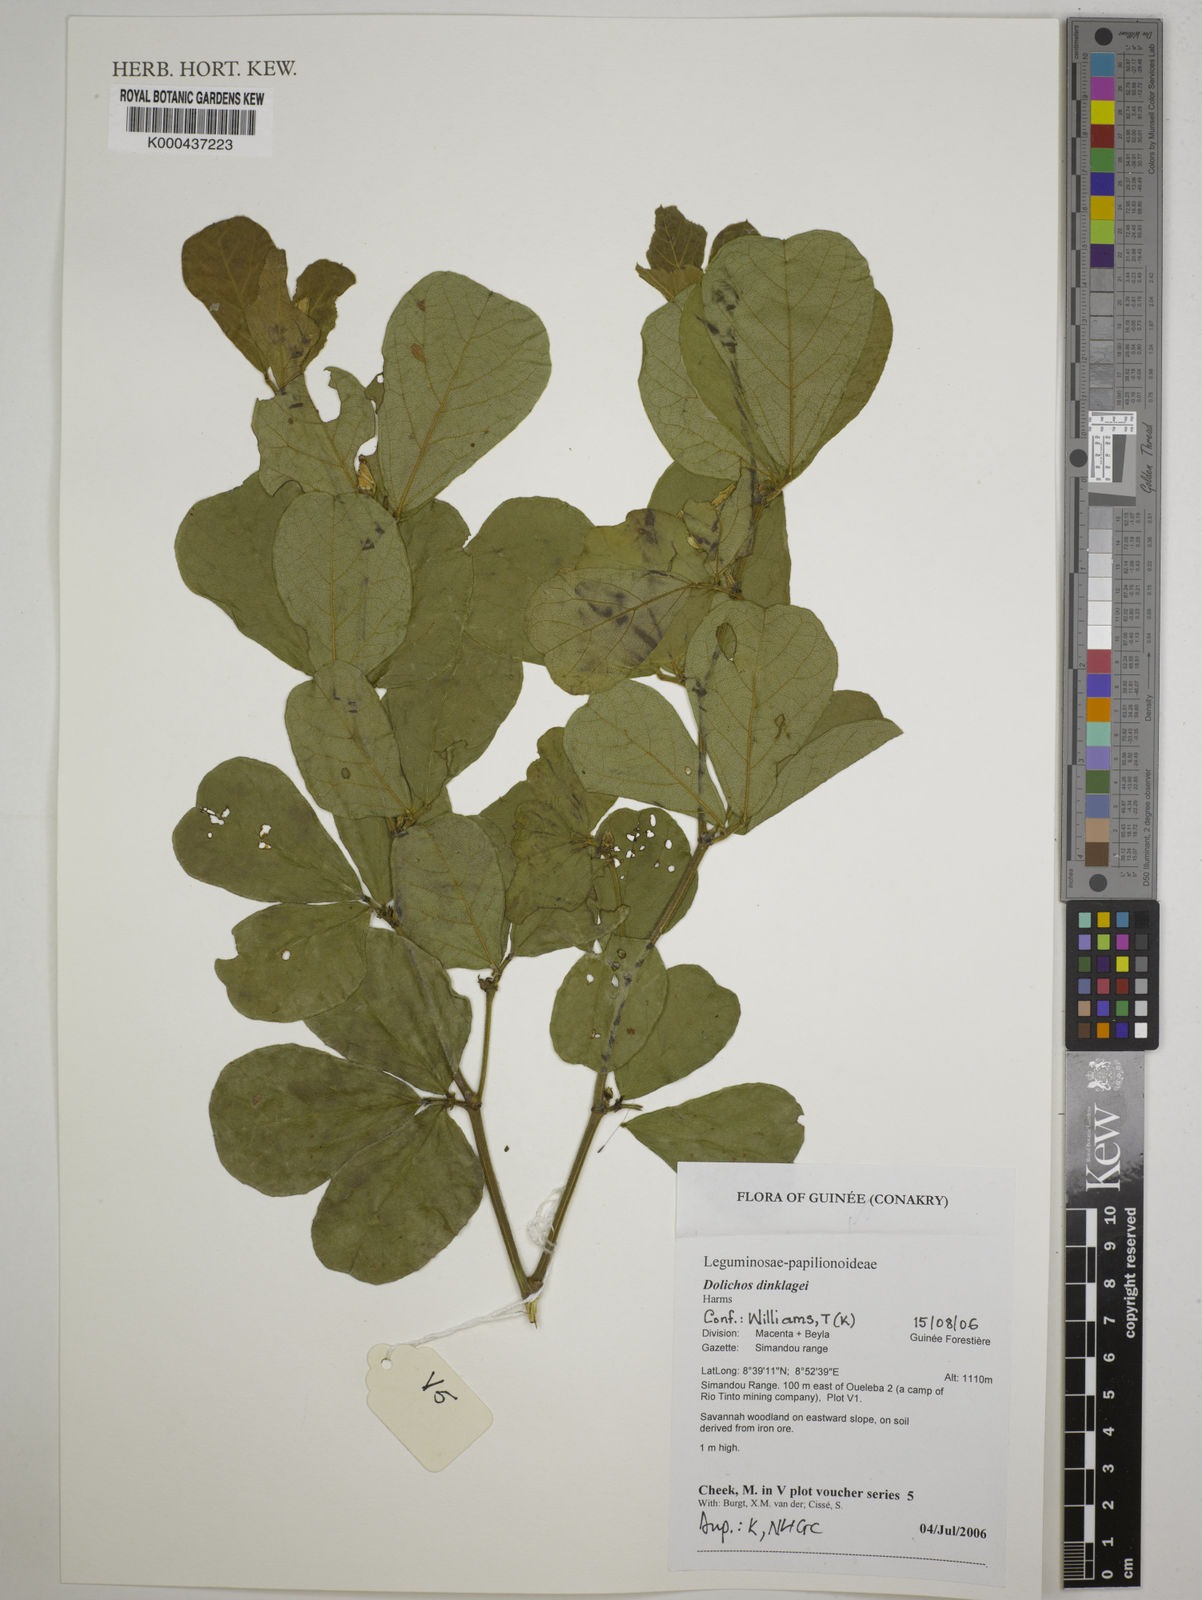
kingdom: Plantae
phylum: Tracheophyta
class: Magnoliopsida
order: Fabales
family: Fabaceae
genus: Dolichos
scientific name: Dolichos dinklagei
